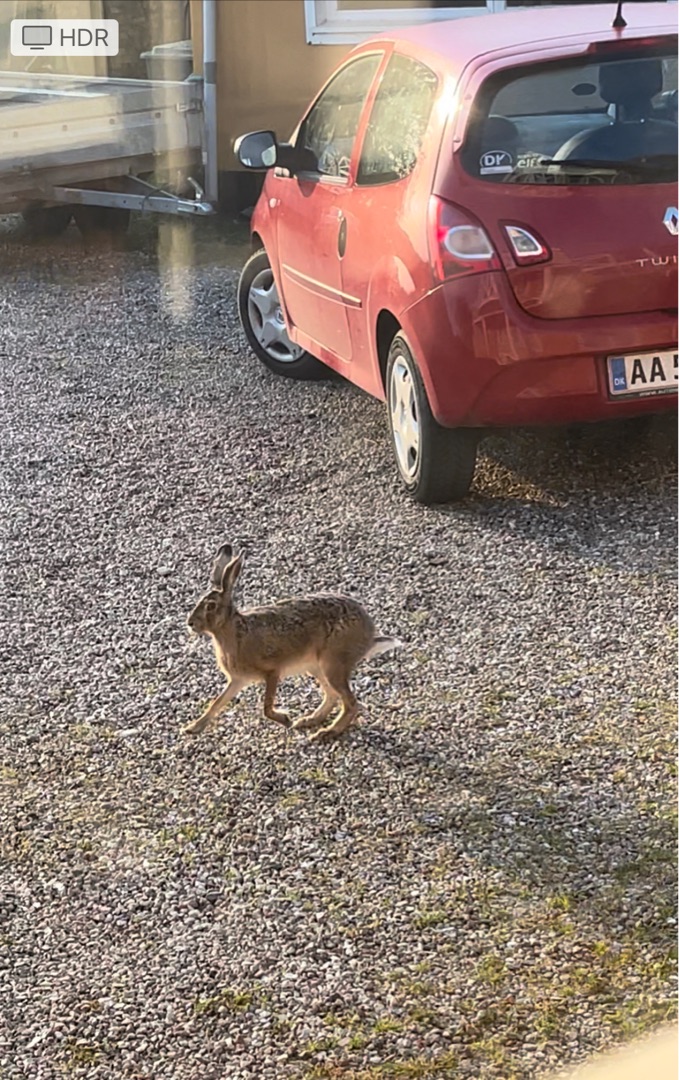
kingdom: Animalia
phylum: Chordata
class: Mammalia
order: Lagomorpha
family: Leporidae
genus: Lepus
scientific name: Lepus europaeus
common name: Hare
